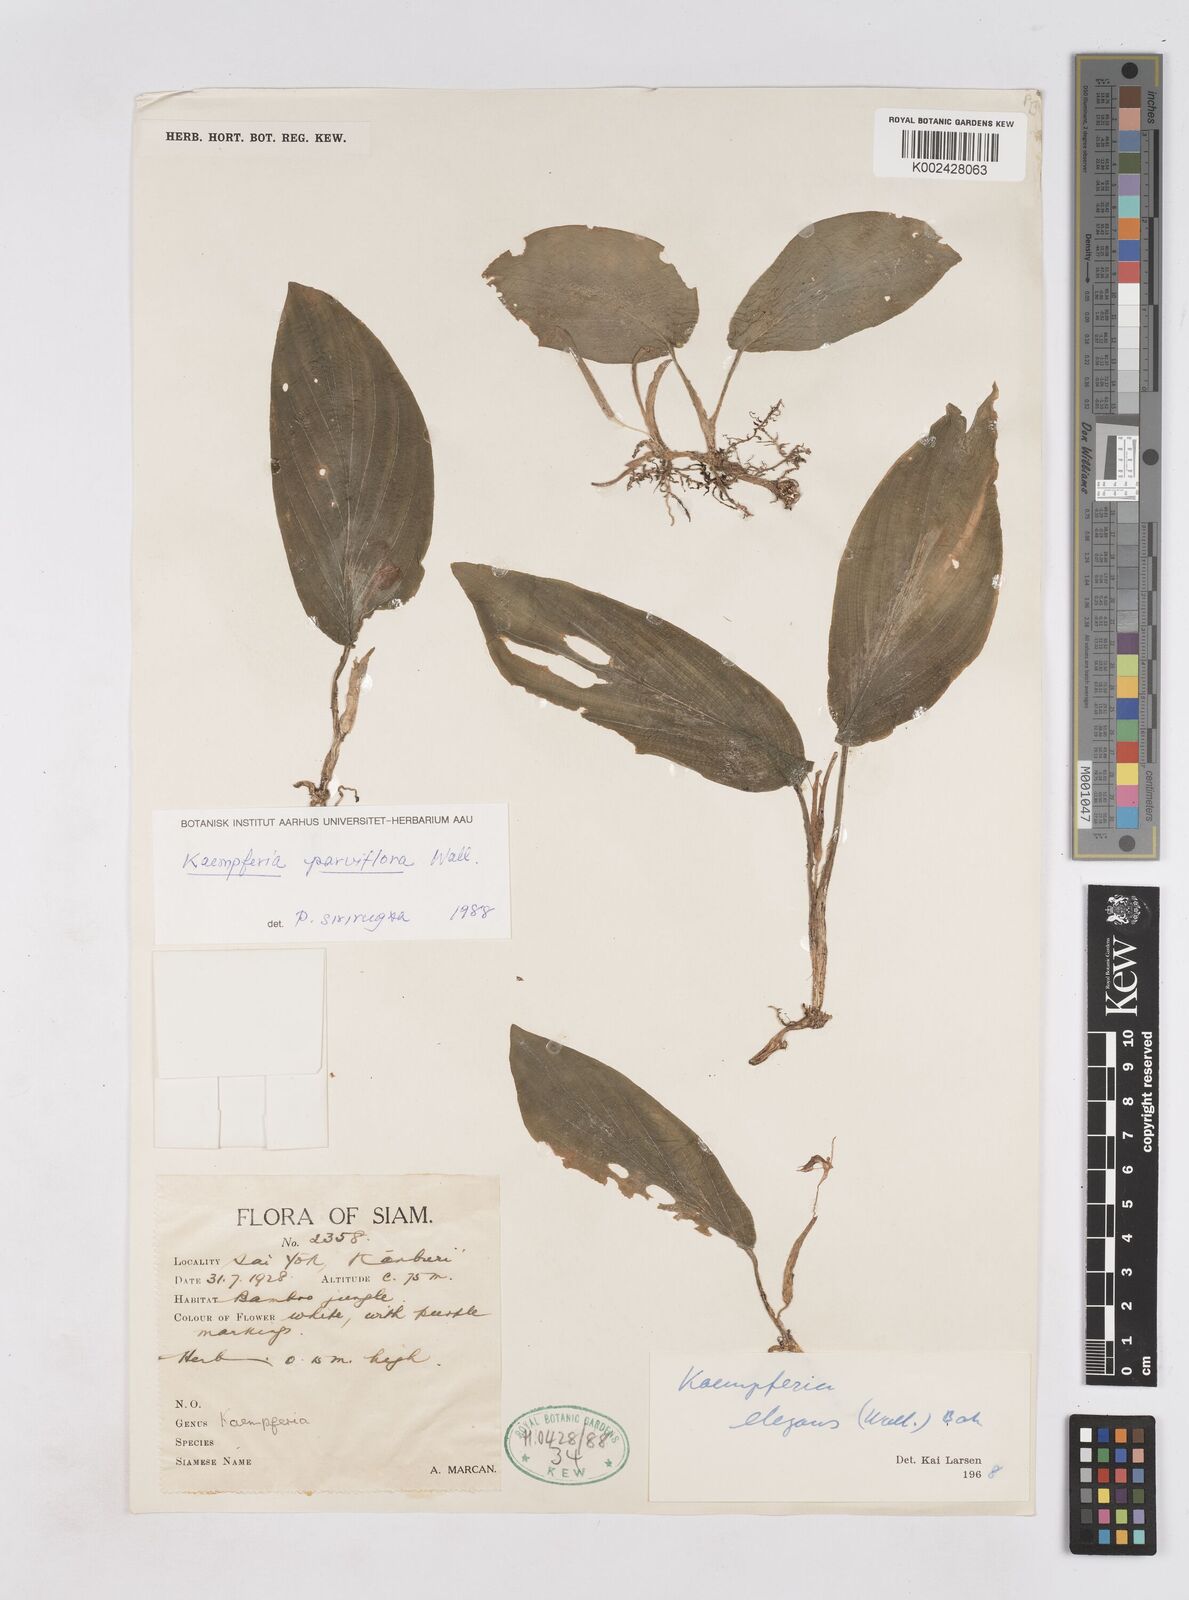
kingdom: Plantae
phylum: Tracheophyta
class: Liliopsida
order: Zingiberales
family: Zingiberaceae
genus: Kaempferia
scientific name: Kaempferia parviflora
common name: Black galingale
